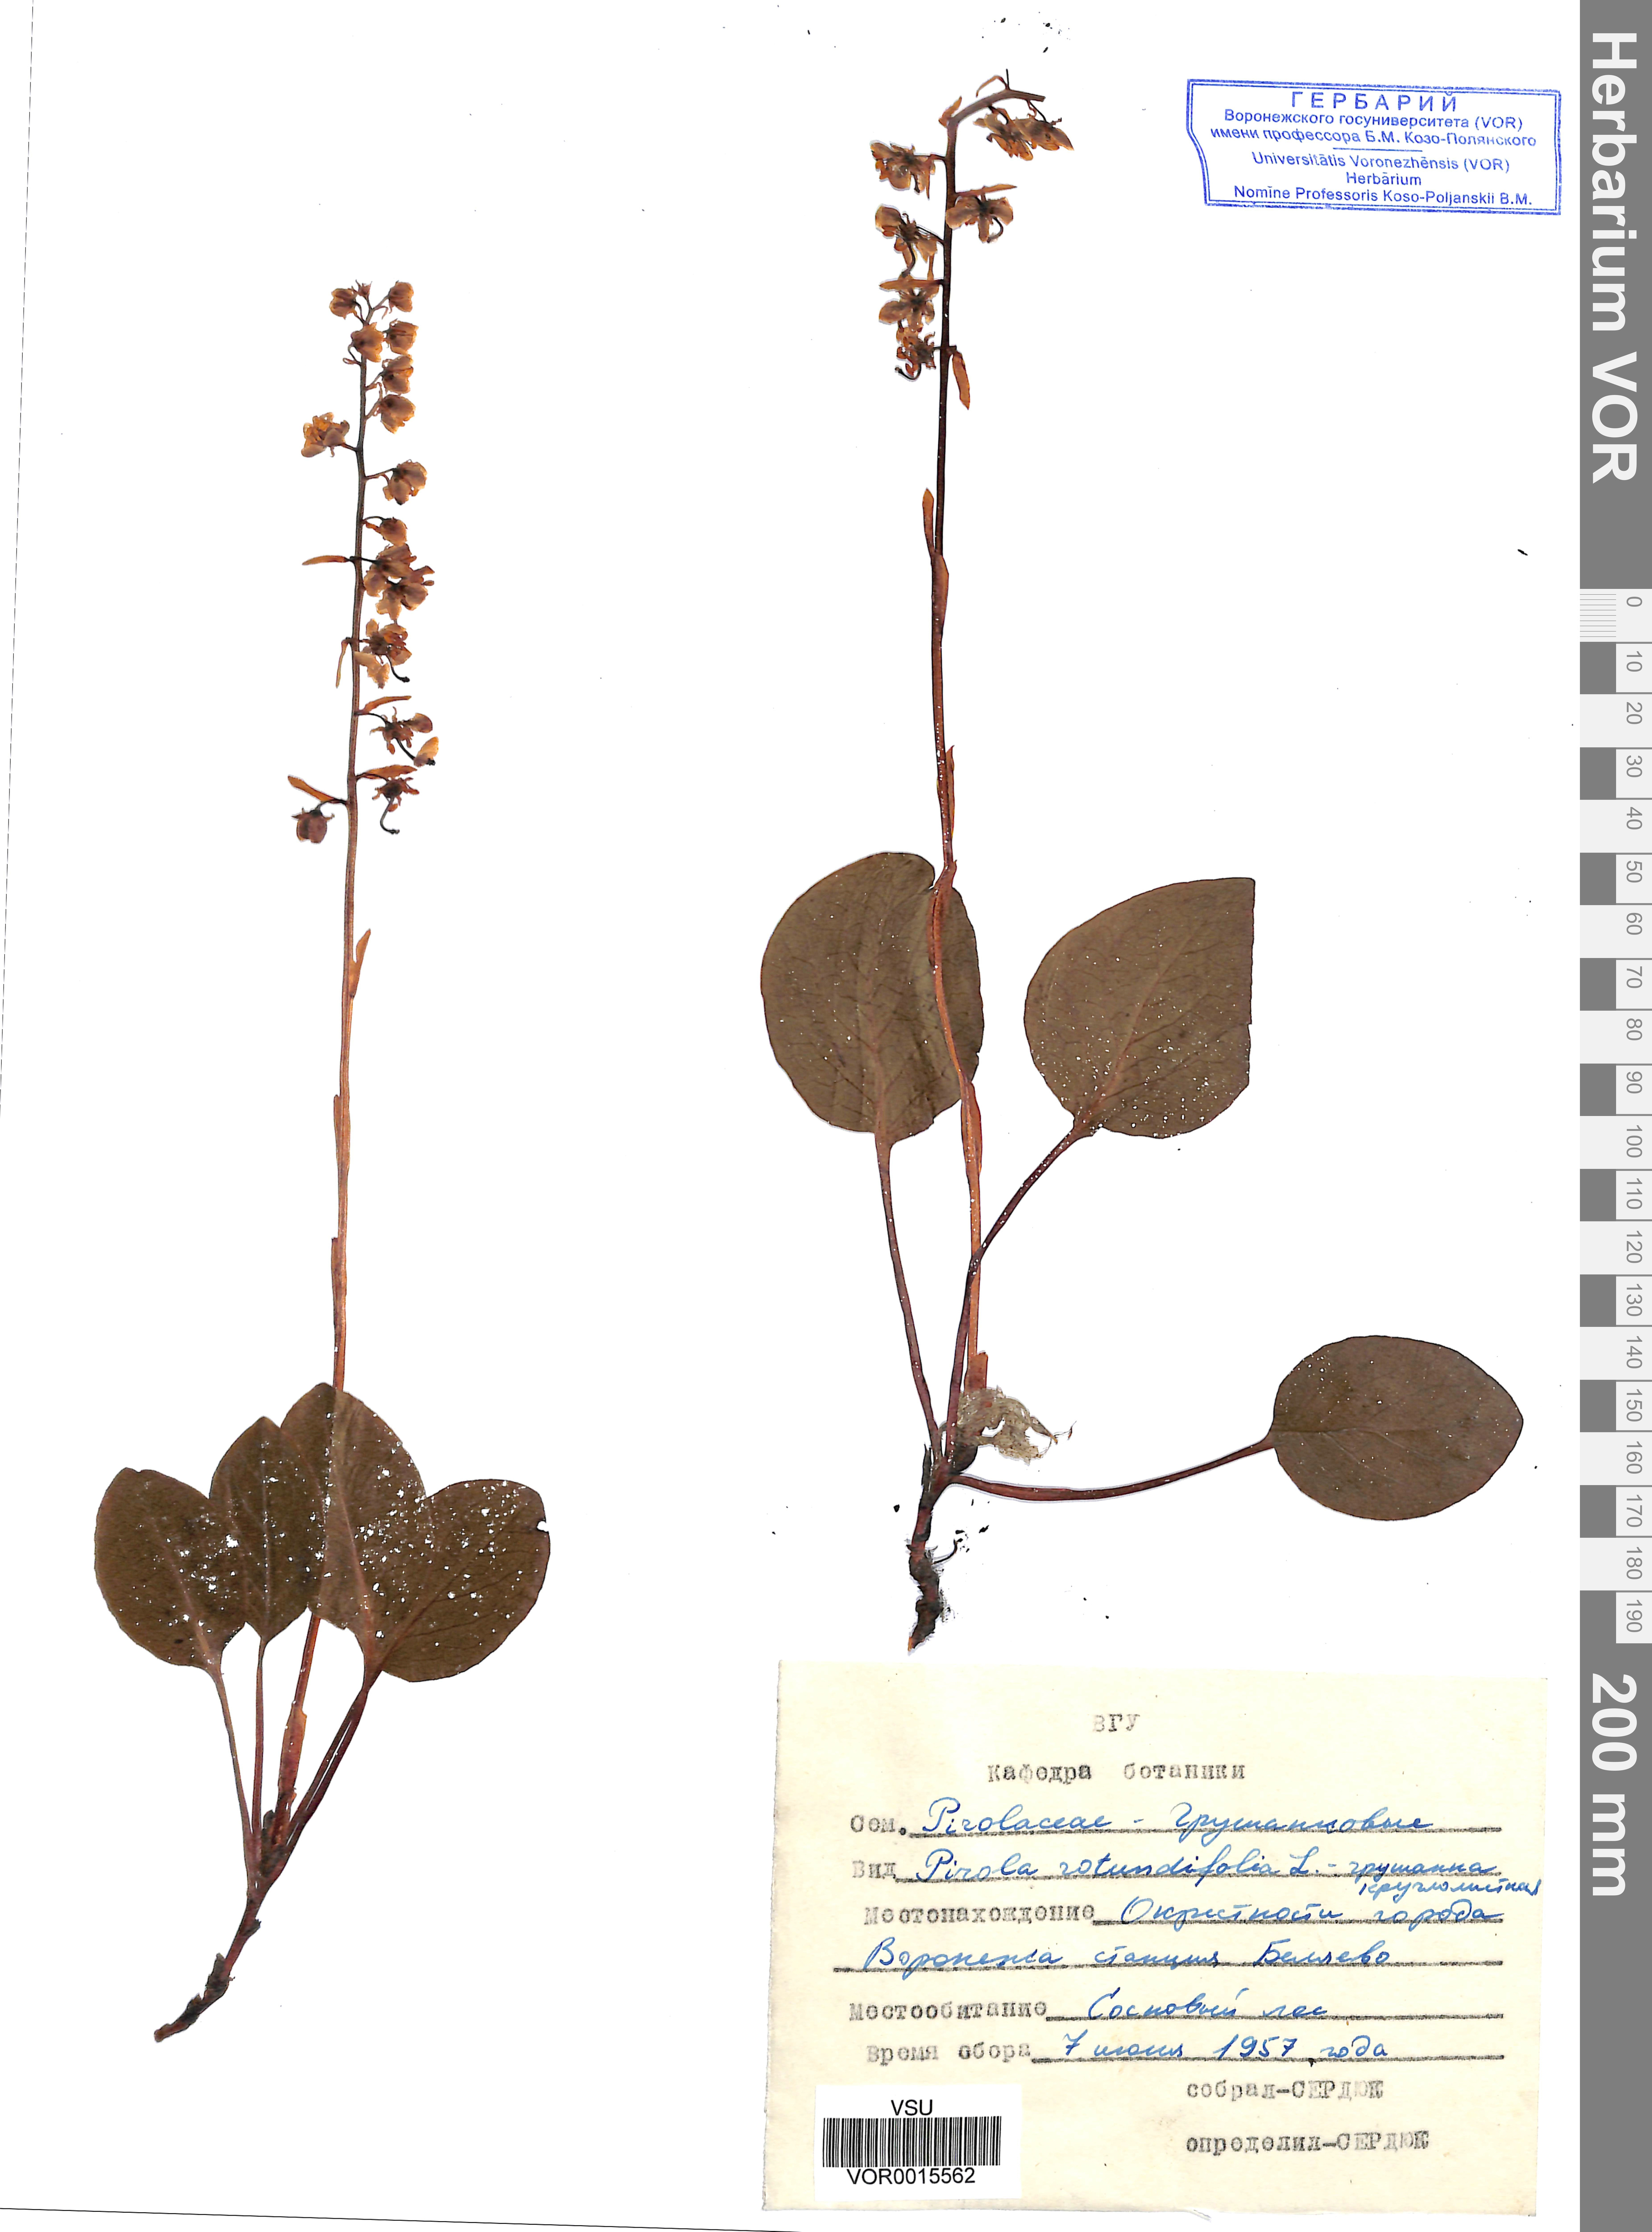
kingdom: Plantae
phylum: Tracheophyta
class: Magnoliopsida
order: Ericales
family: Ericaceae
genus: Pyrola
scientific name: Pyrola rotundifolia
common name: Round-leaved wintergreen
